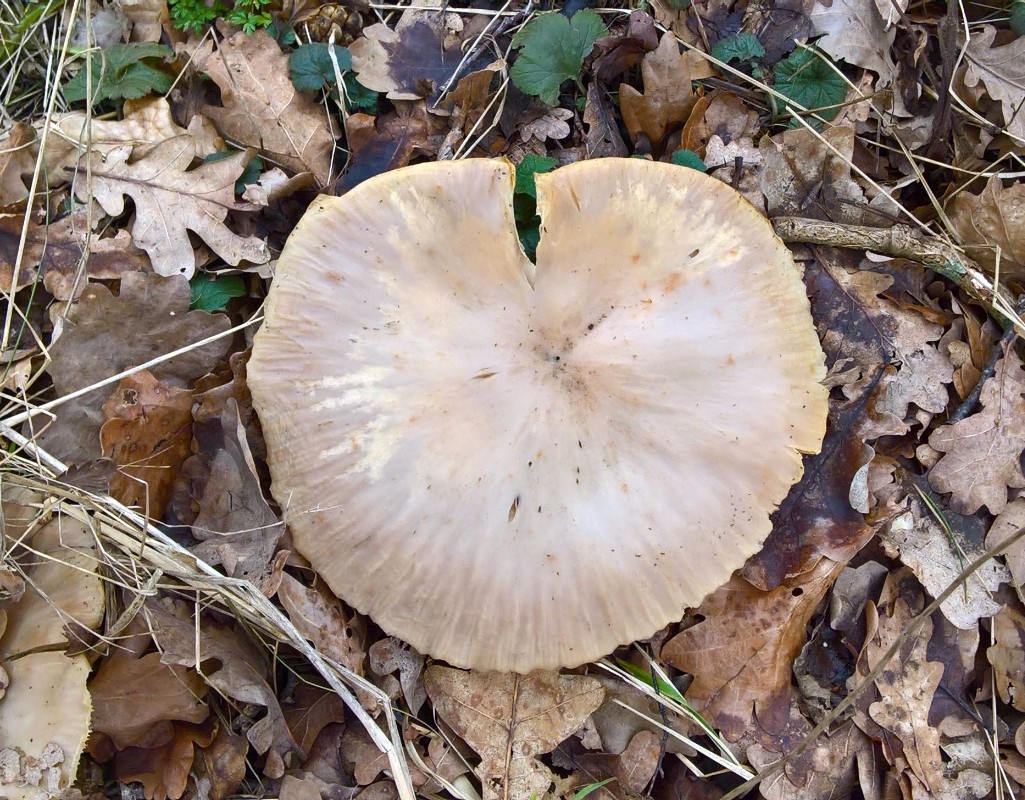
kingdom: Fungi
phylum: Basidiomycota
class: Agaricomycetes
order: Agaricales
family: Tricholomataceae
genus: Infundibulicybe
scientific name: Infundibulicybe geotropa
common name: stor tragthat
